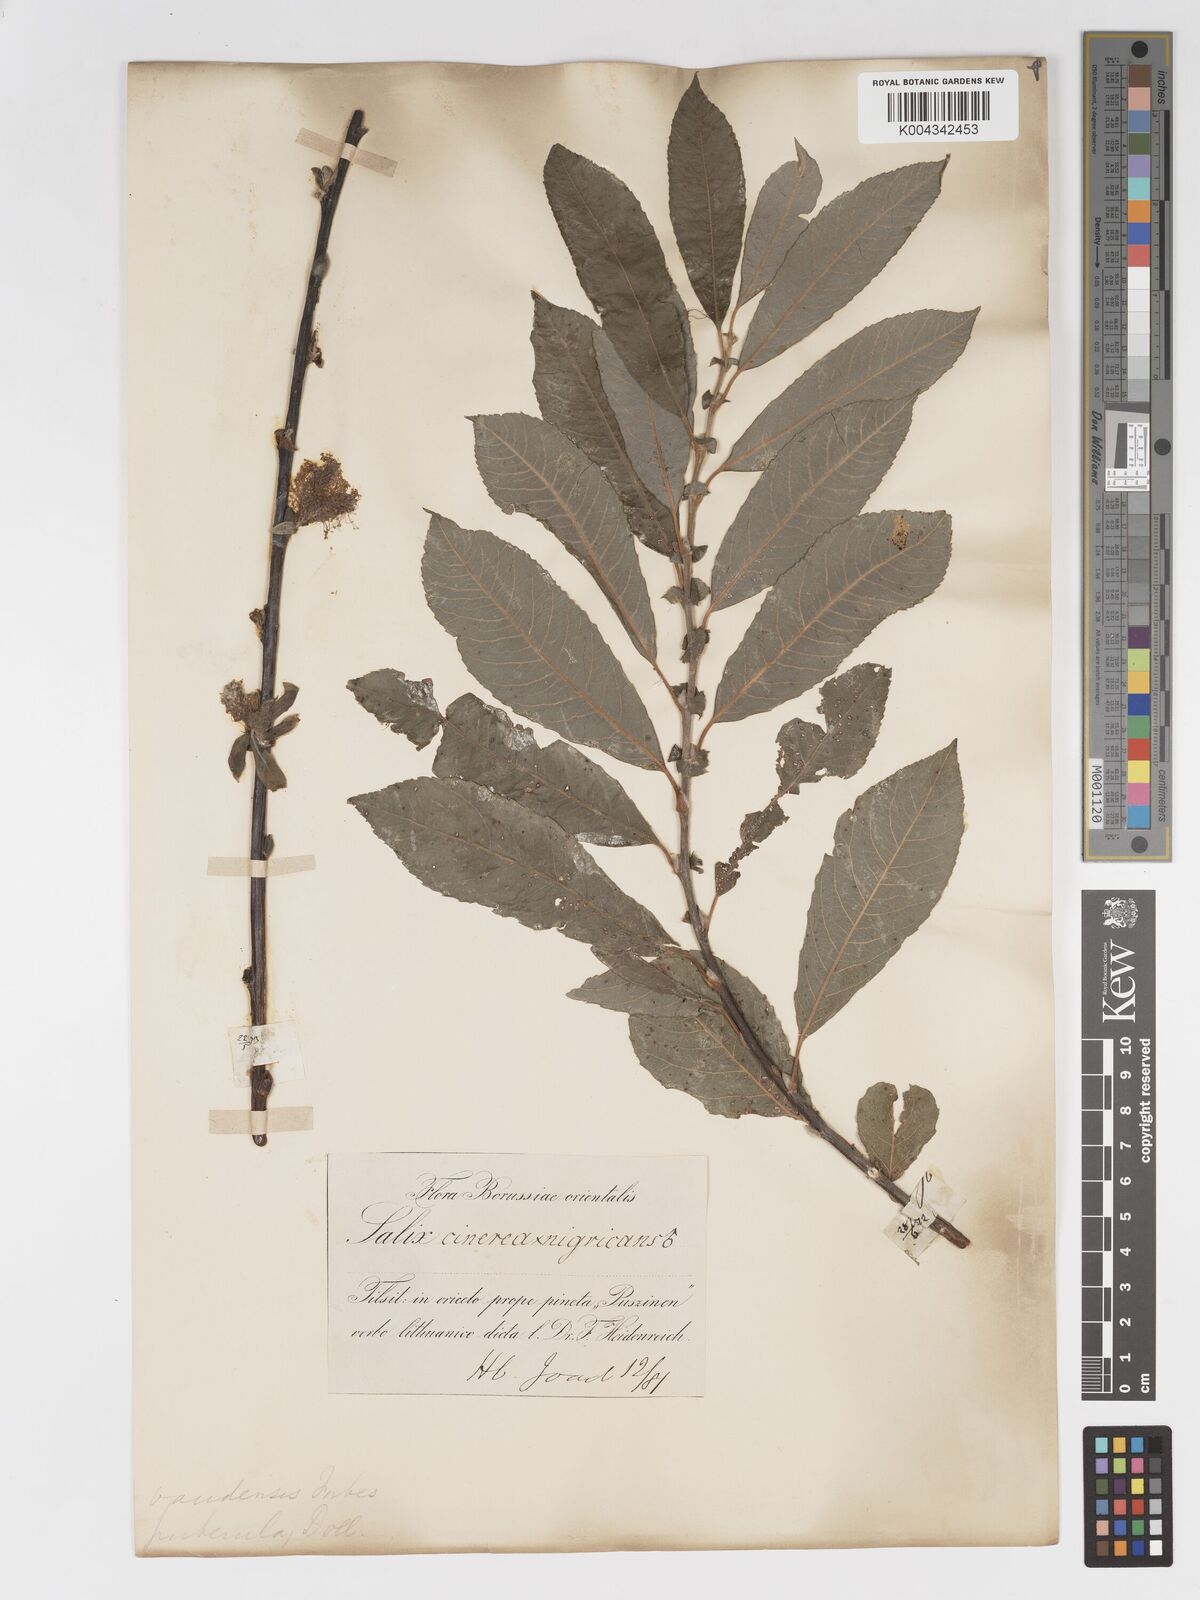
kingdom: Plantae
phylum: Tracheophyta
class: Magnoliopsida
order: Malpighiales
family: Salicaceae
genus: Salix
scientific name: Salix
